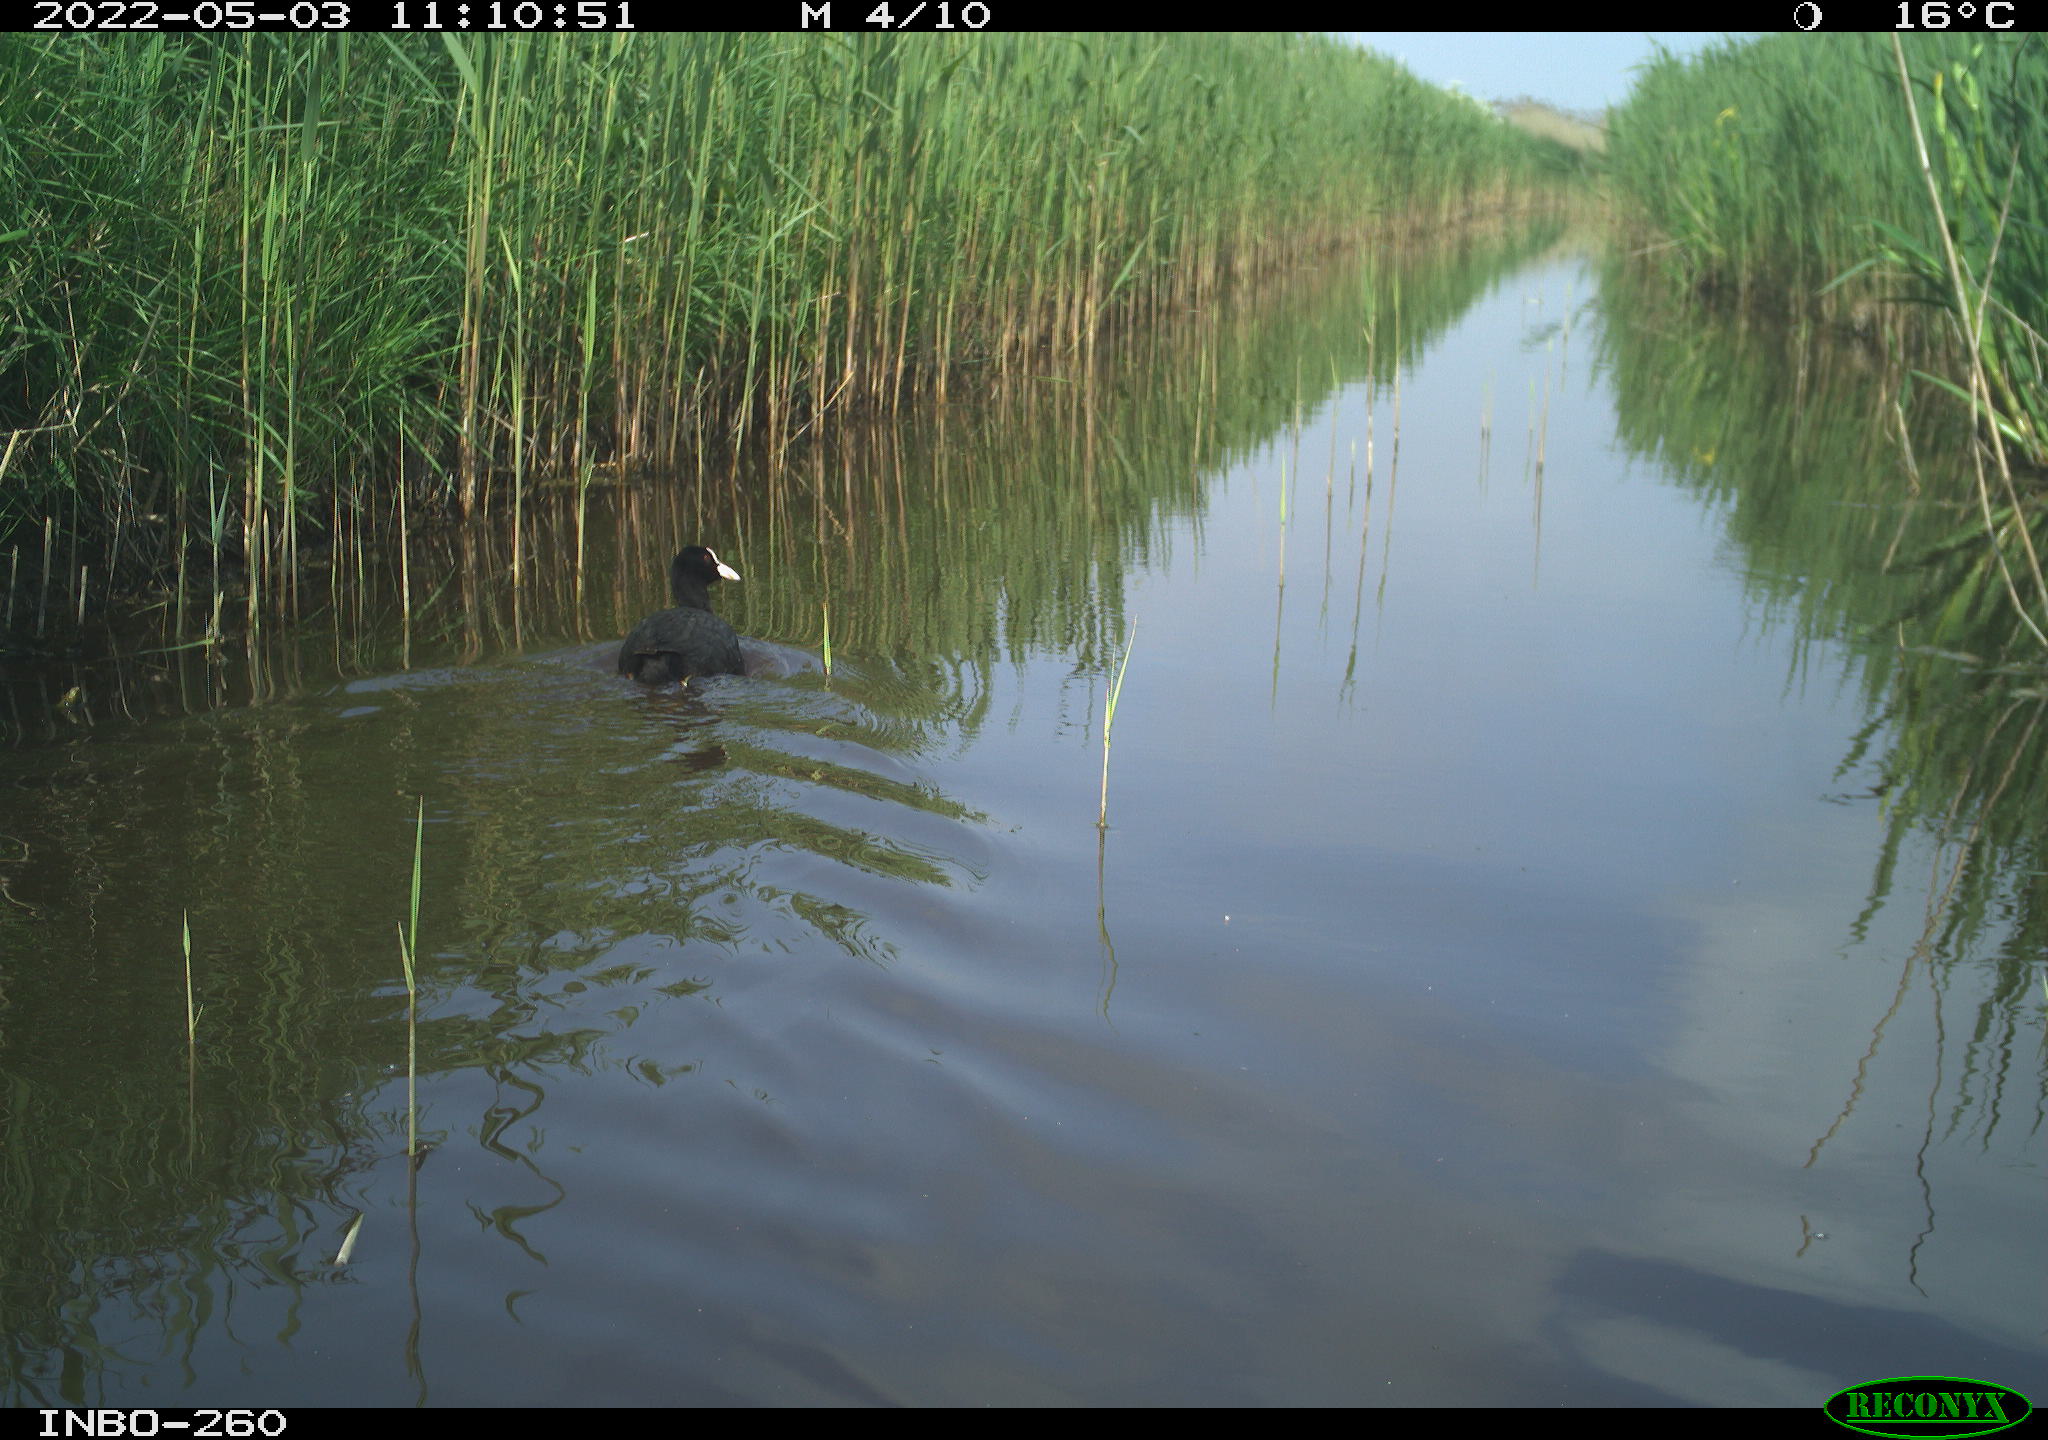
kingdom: Animalia
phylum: Chordata
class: Aves
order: Gruiformes
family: Rallidae
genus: Fulica
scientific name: Fulica atra
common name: Eurasian coot
